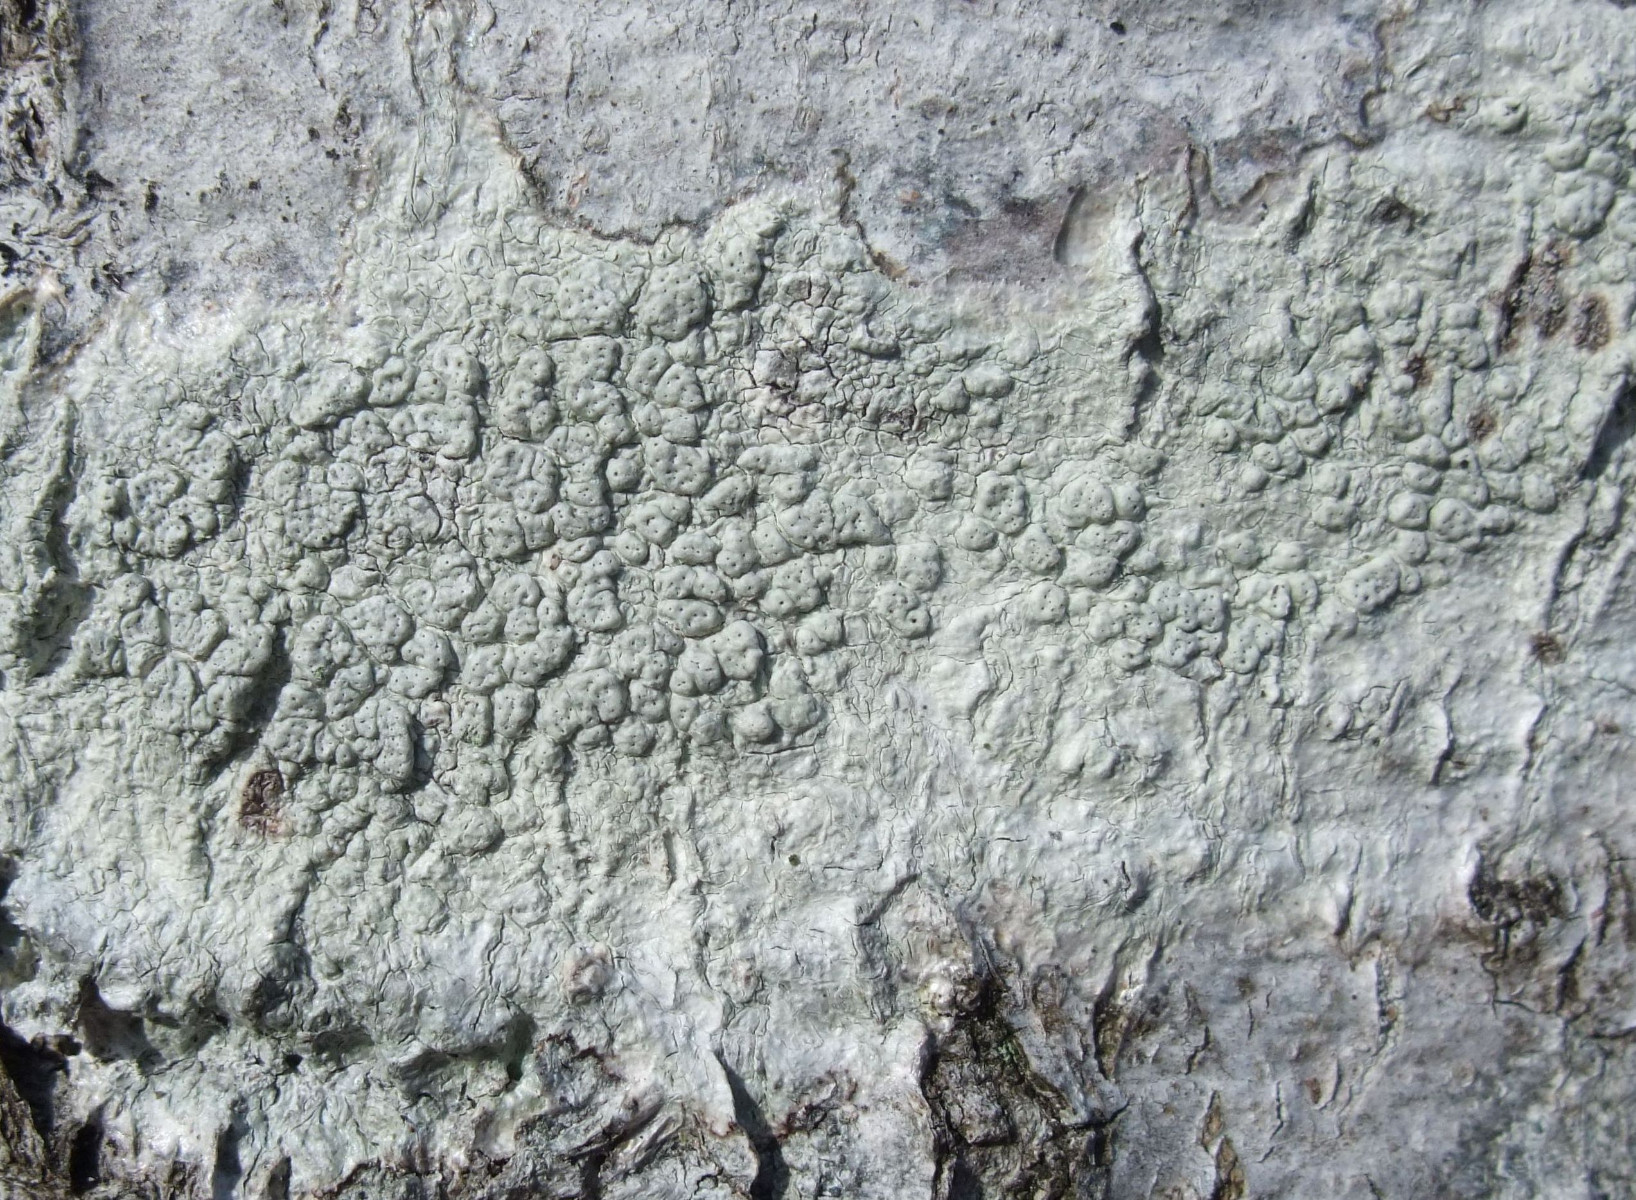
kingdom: Fungi
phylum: Ascomycota
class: Lecanoromycetes
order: Pertusariales
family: Pertusariaceae
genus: Pertusaria
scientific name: Pertusaria pertusa
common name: almindelig prikvortelav
